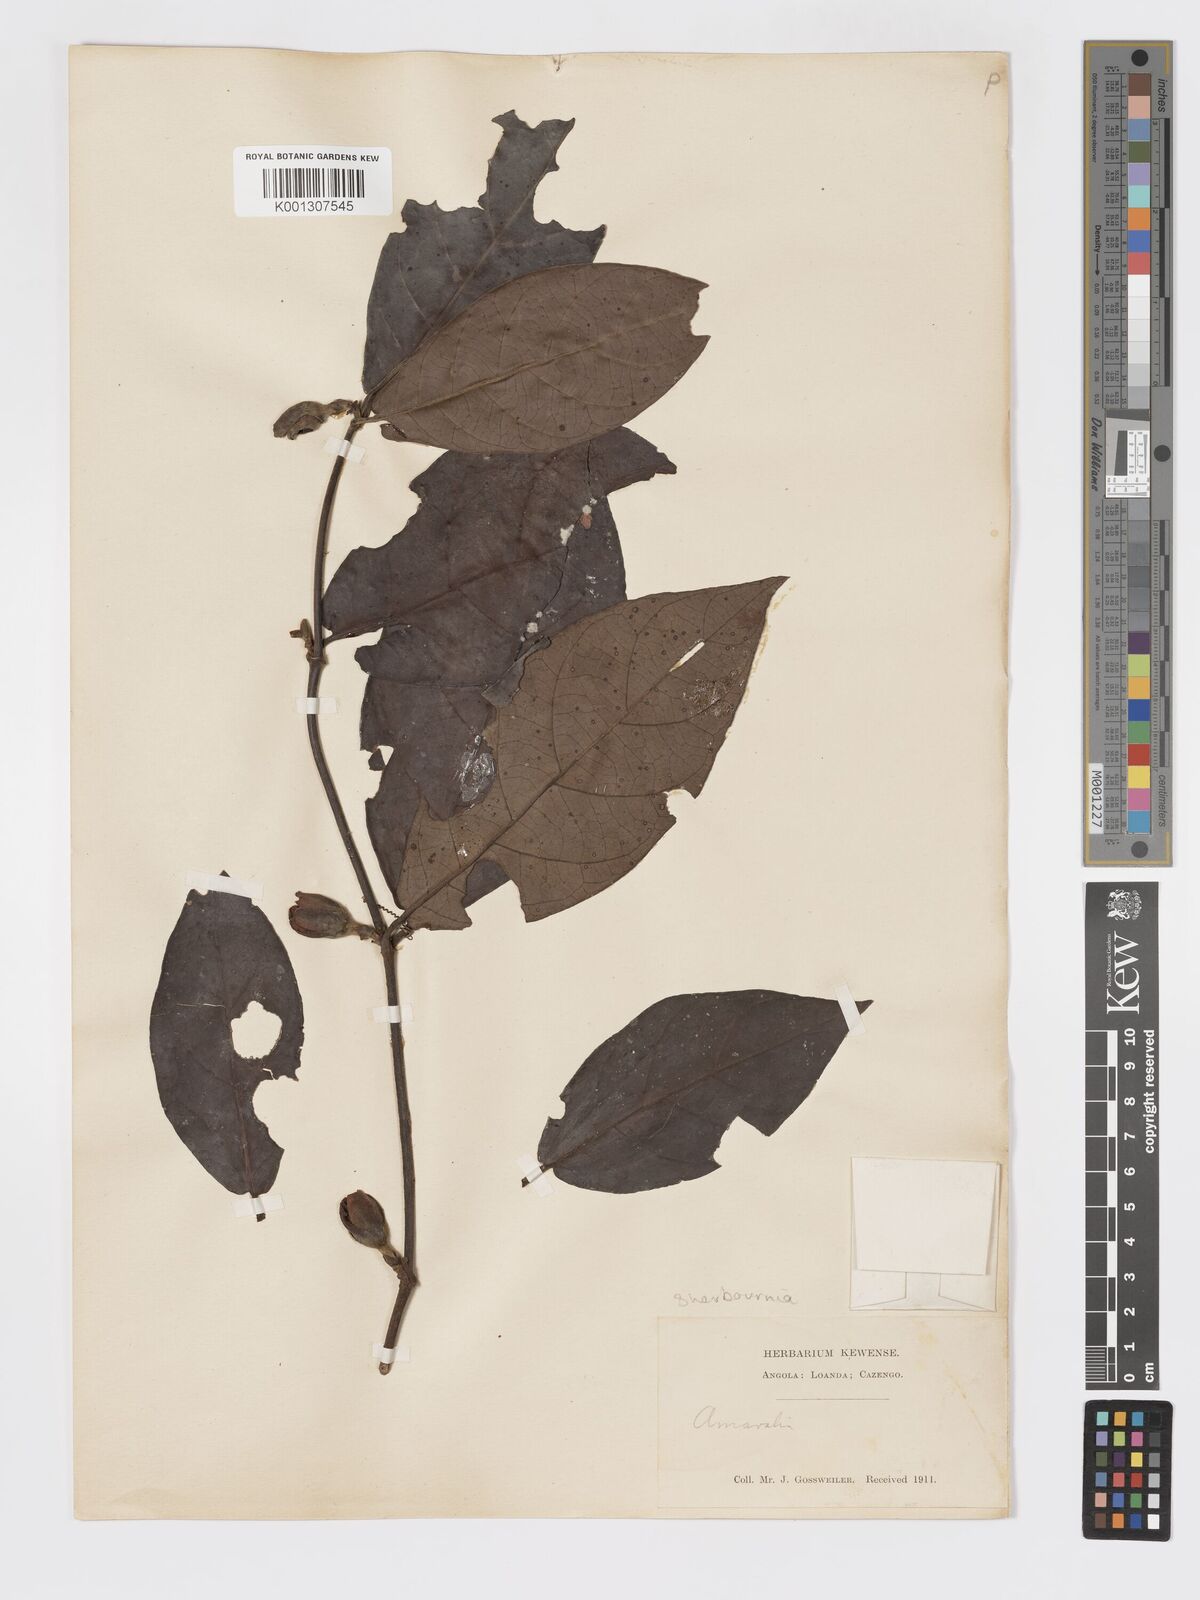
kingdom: Plantae
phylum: Tracheophyta
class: Magnoliopsida
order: Gentianales
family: Rubiaceae
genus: Sherbournia
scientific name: Sherbournia
